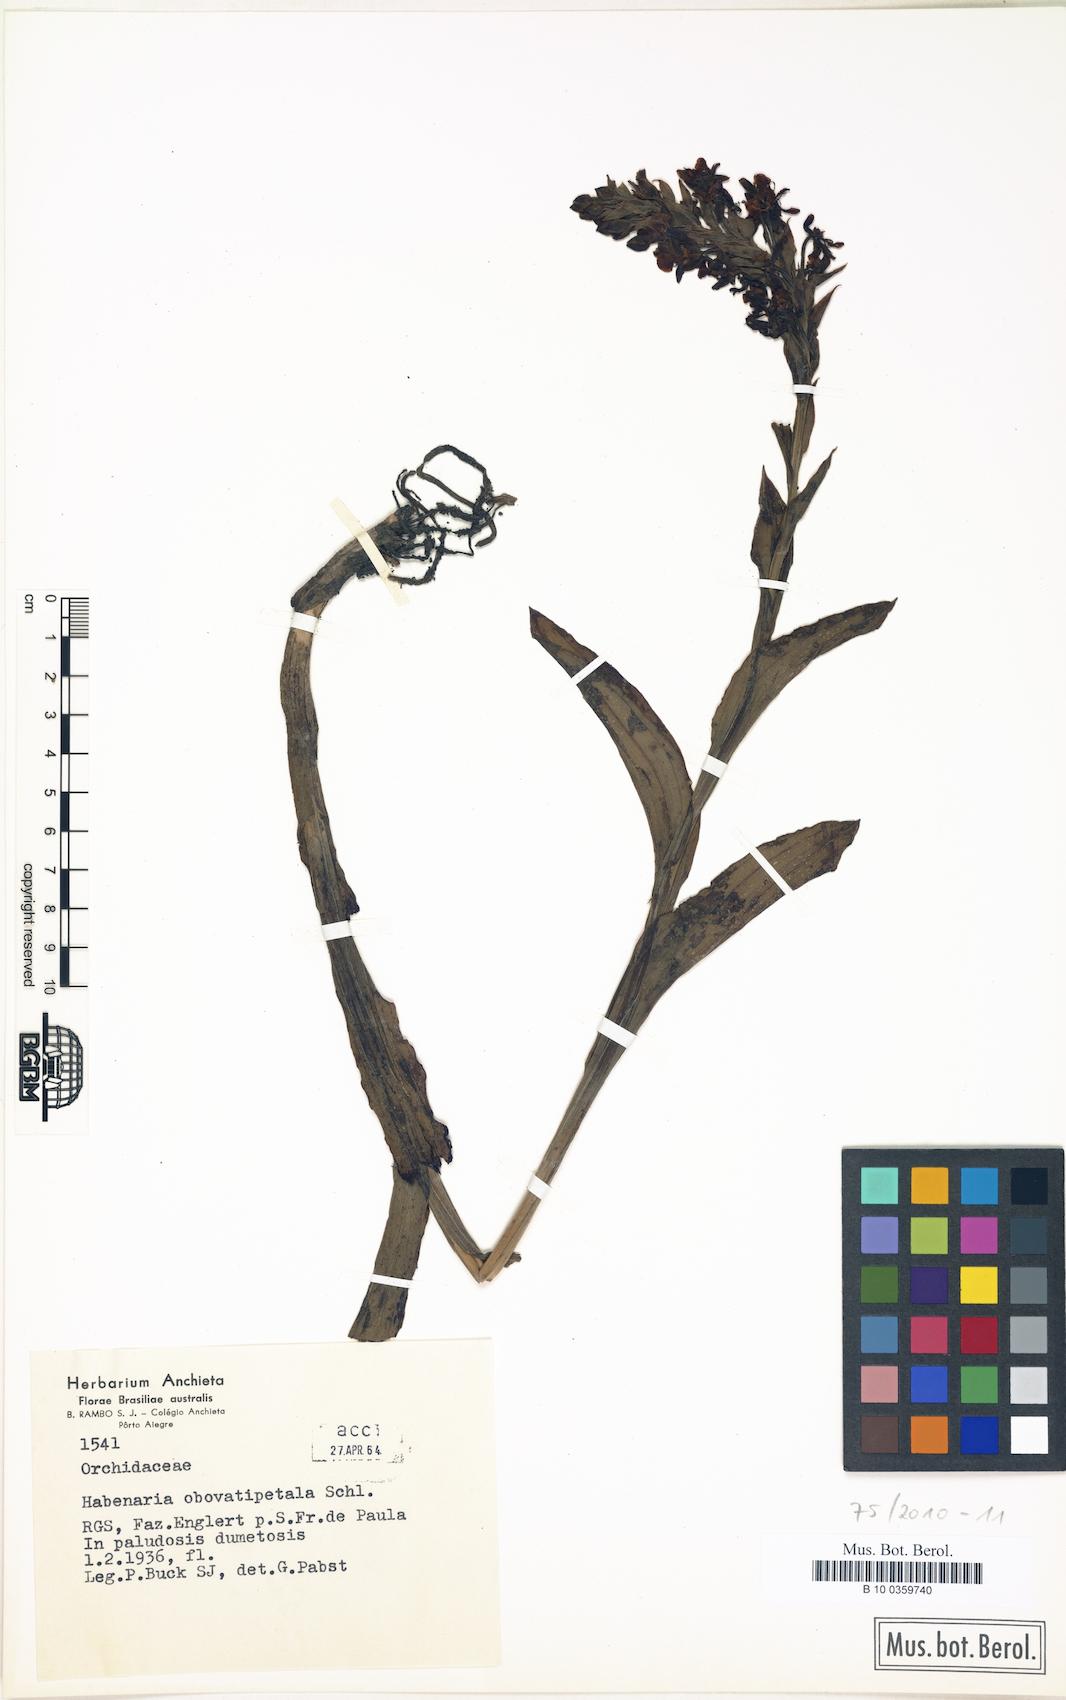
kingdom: Plantae
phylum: Tracheophyta
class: Liliopsida
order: Asparagales
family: Orchidaceae
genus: Habenaria
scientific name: Habenaria montevidensis
